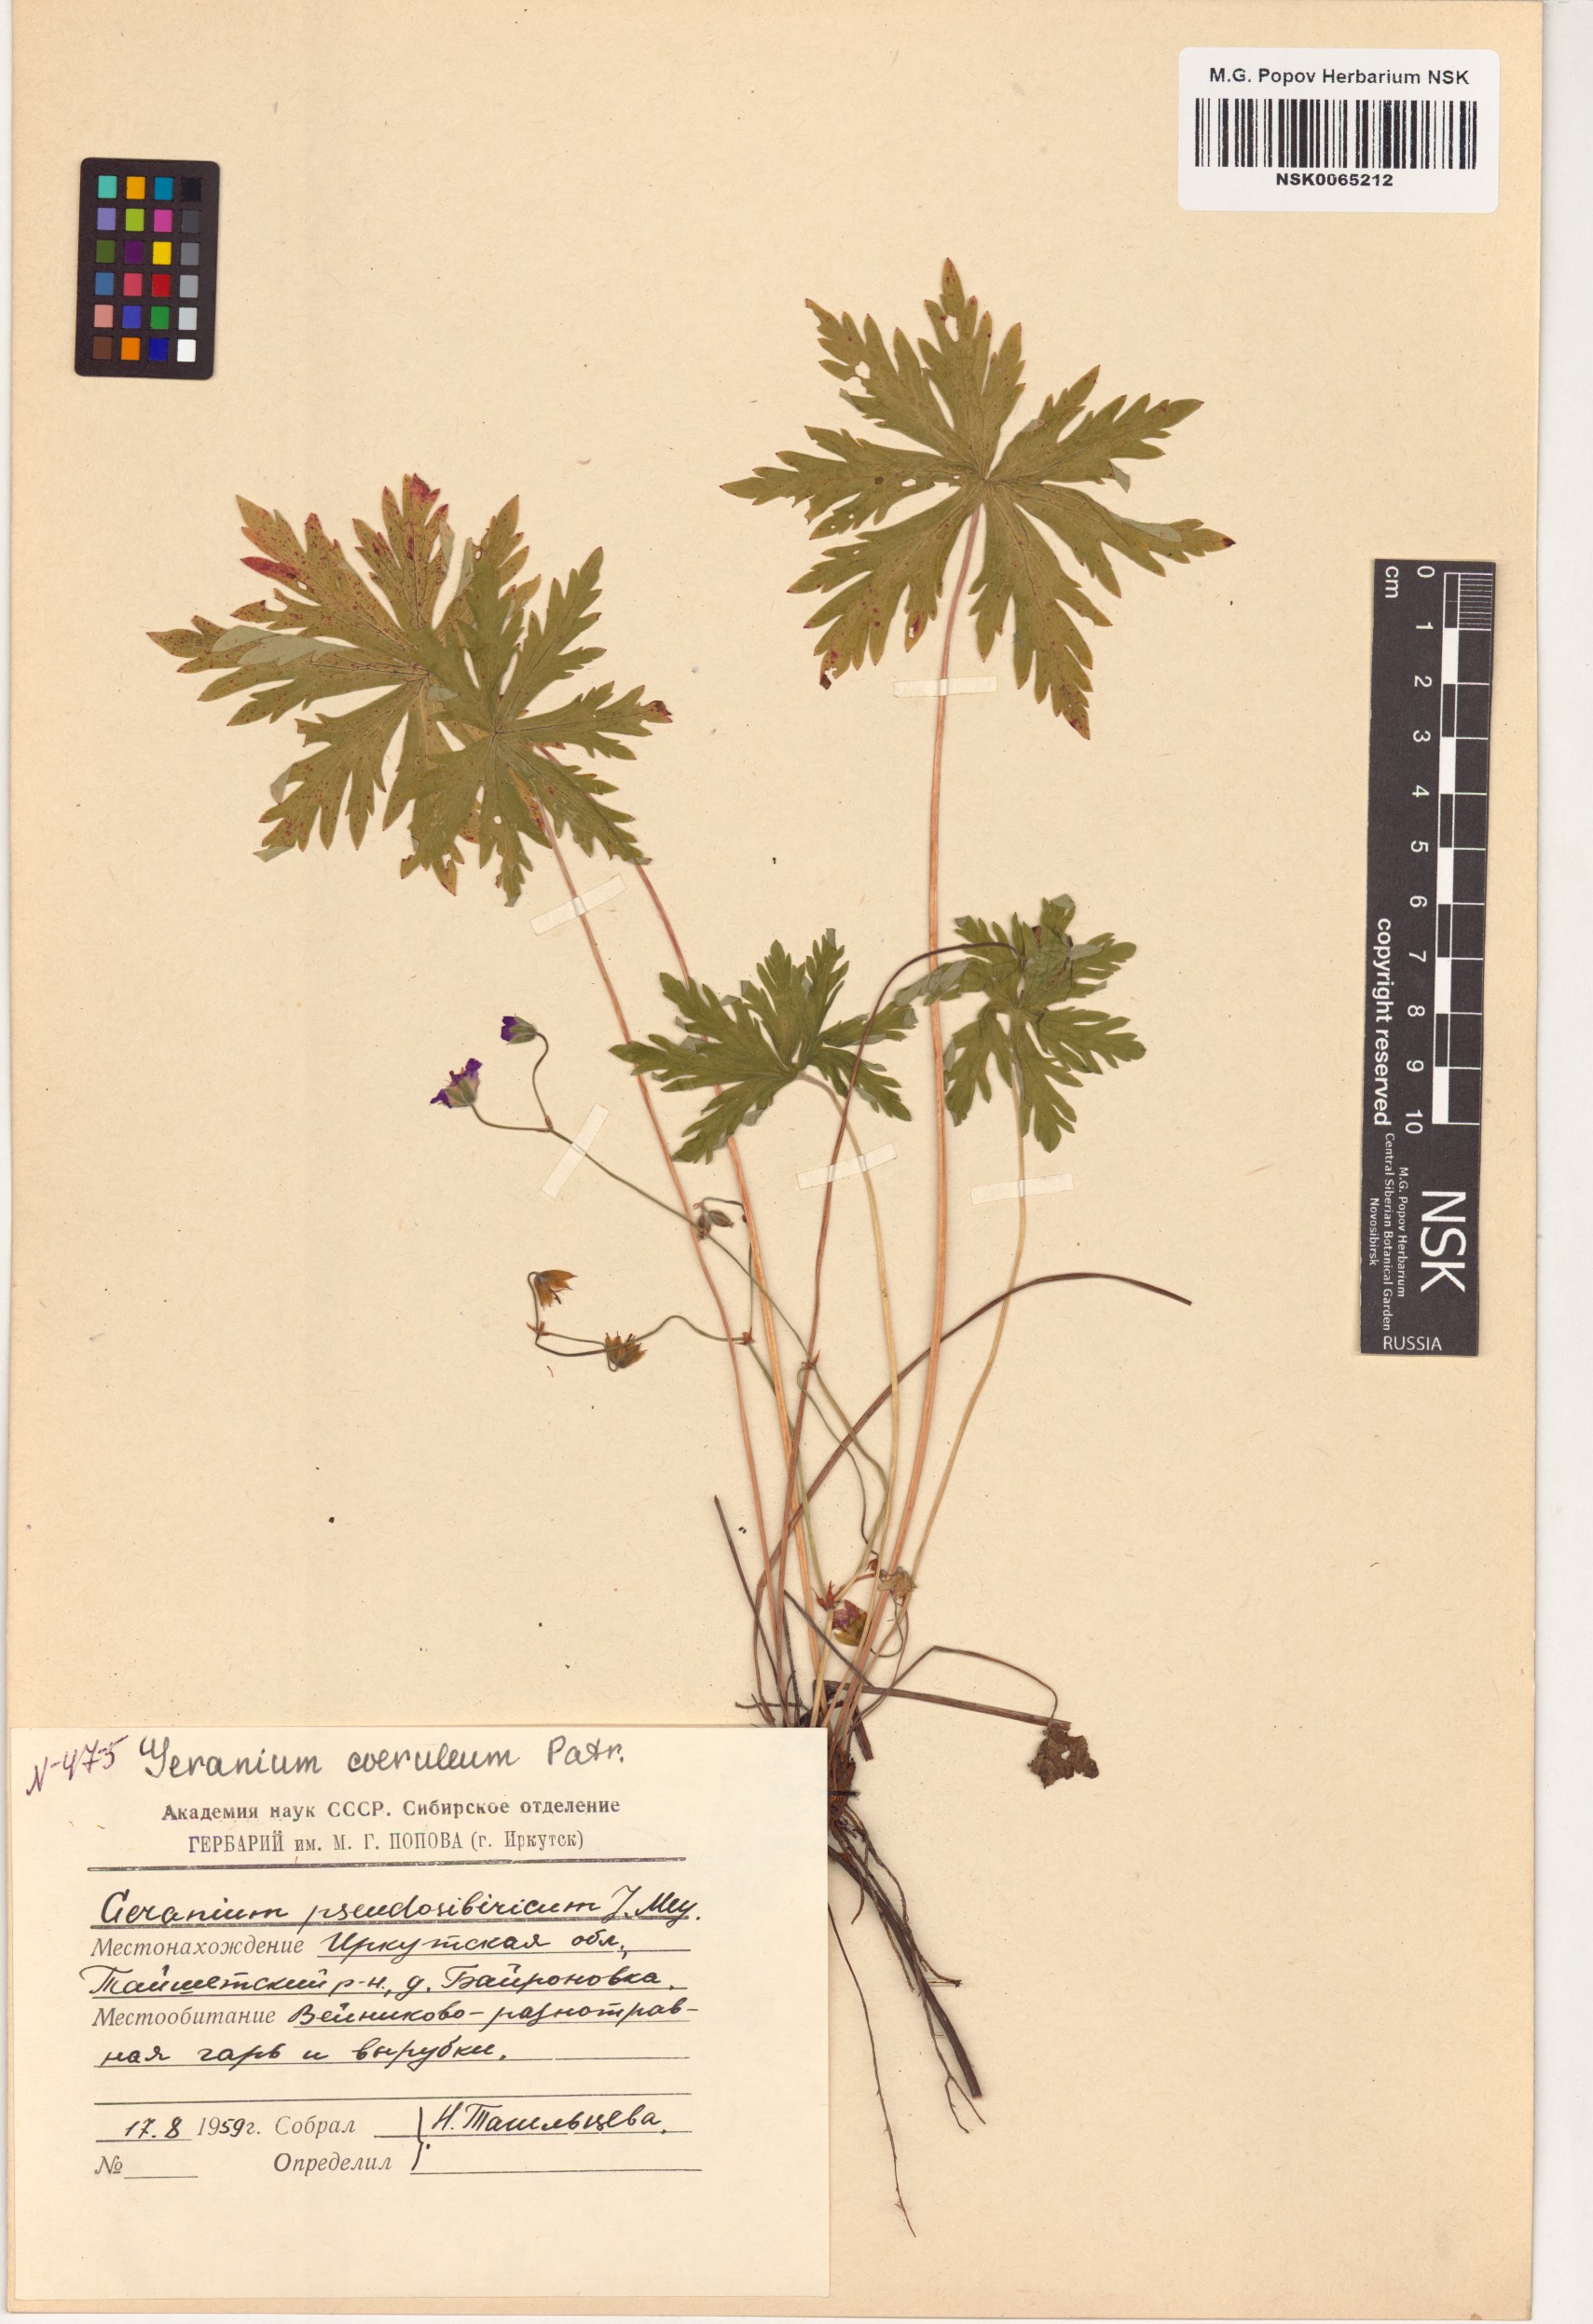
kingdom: Plantae
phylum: Tracheophyta
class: Magnoliopsida
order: Geraniales
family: Geraniaceae
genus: Geranium
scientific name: Geranium pseudosibiricum
